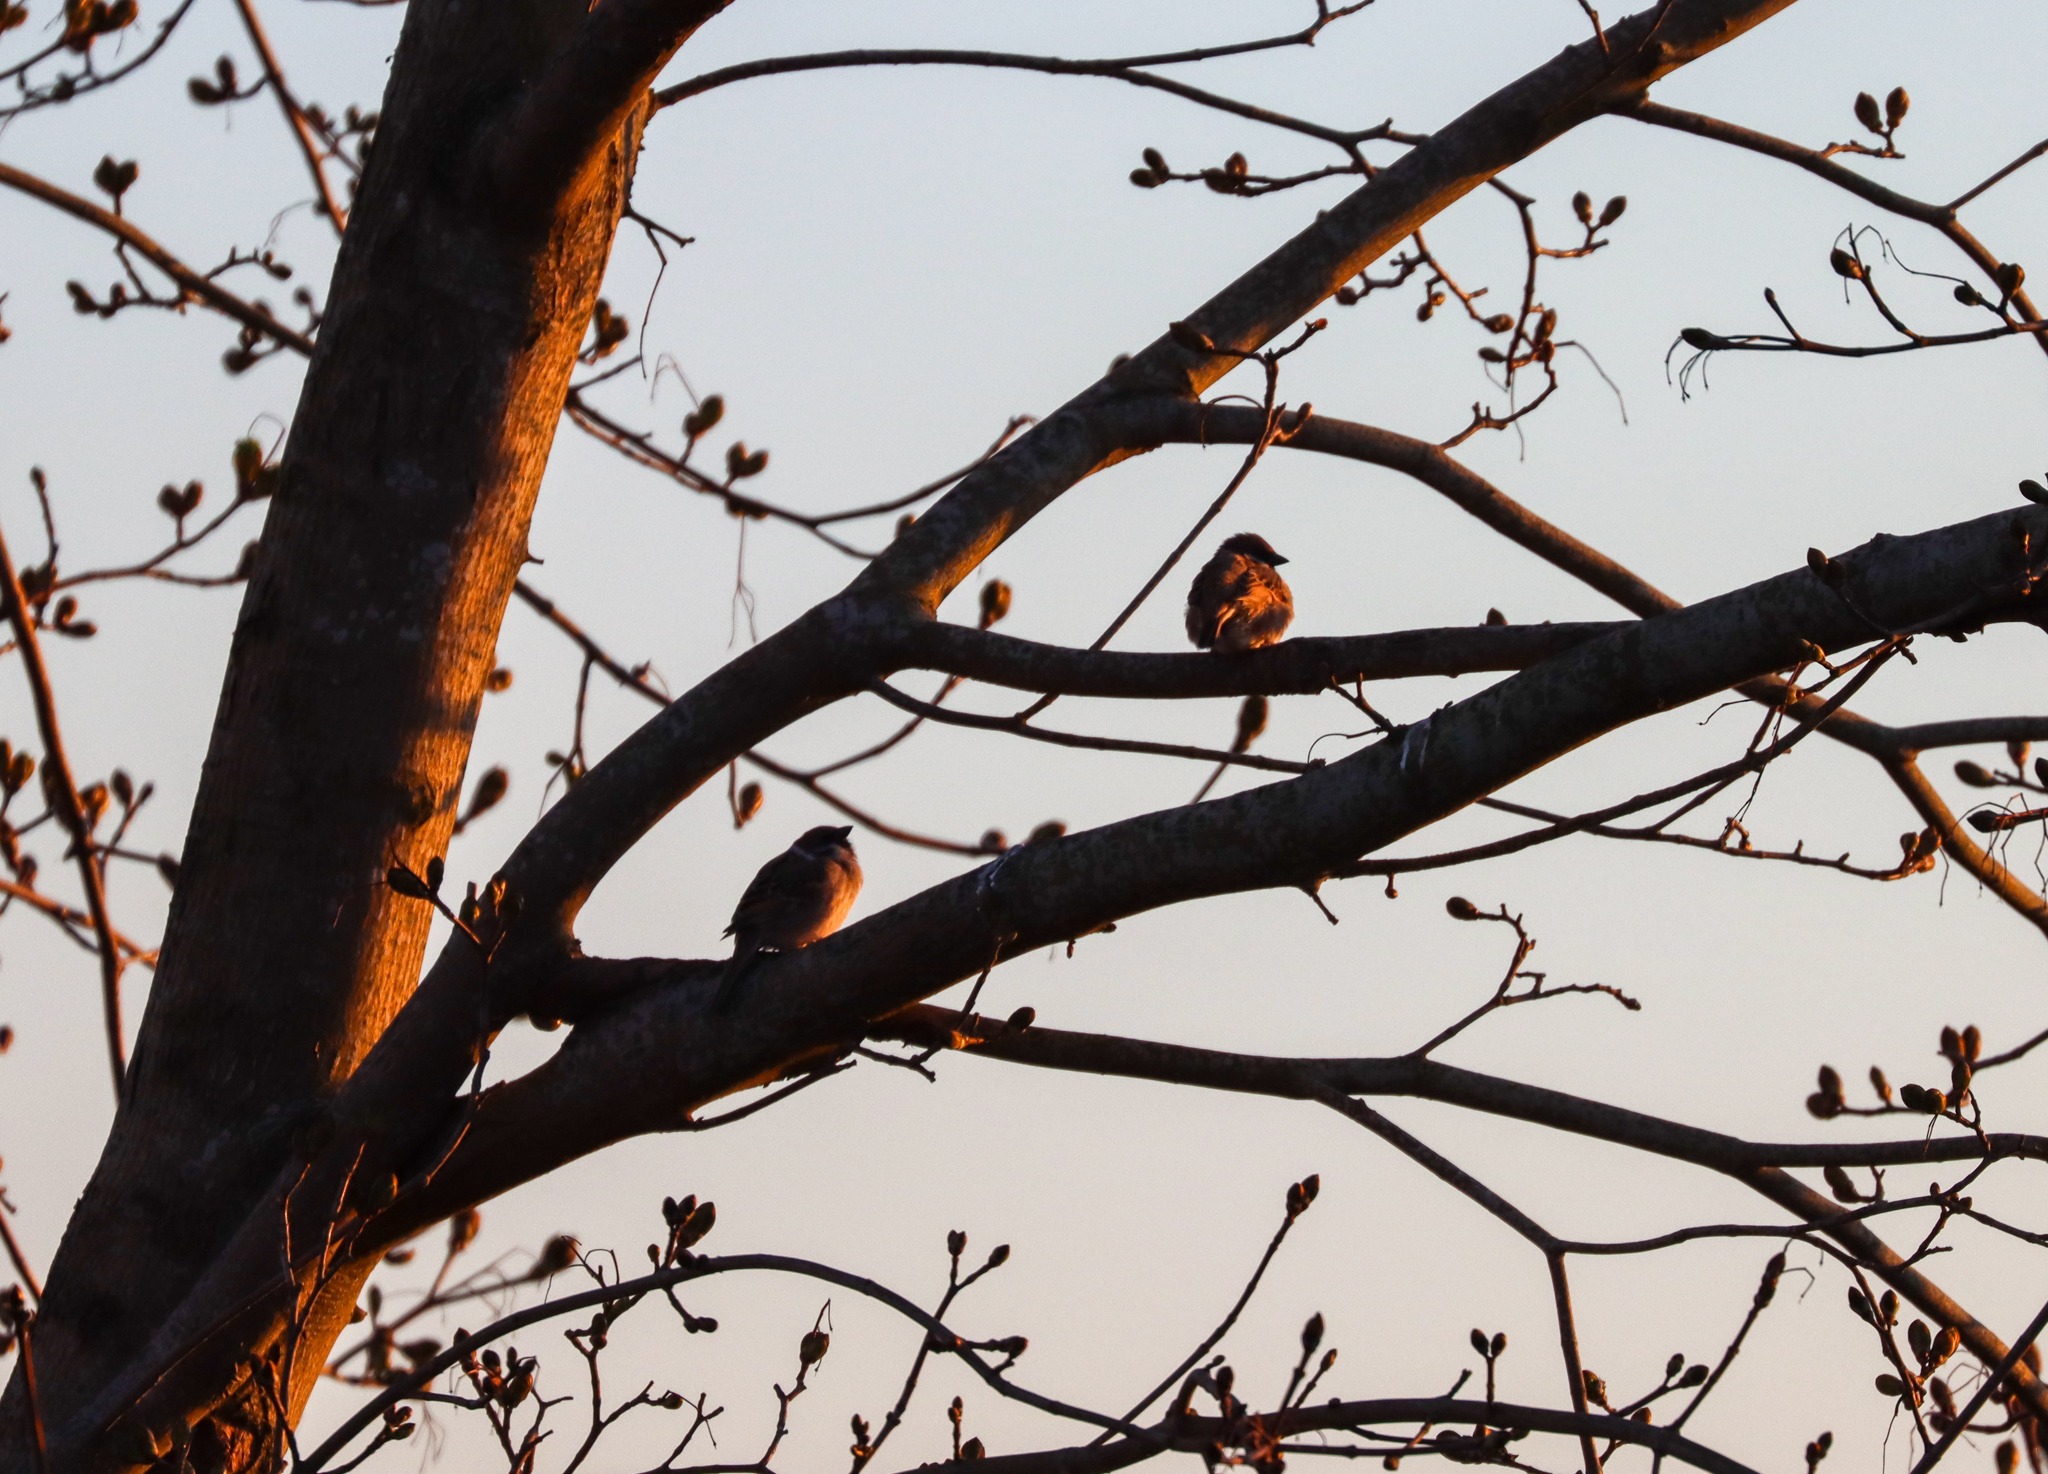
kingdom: Animalia
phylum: Chordata
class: Aves
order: Passeriformes
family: Passeridae
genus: Passer
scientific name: Passer montanus
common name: Skovspurv
